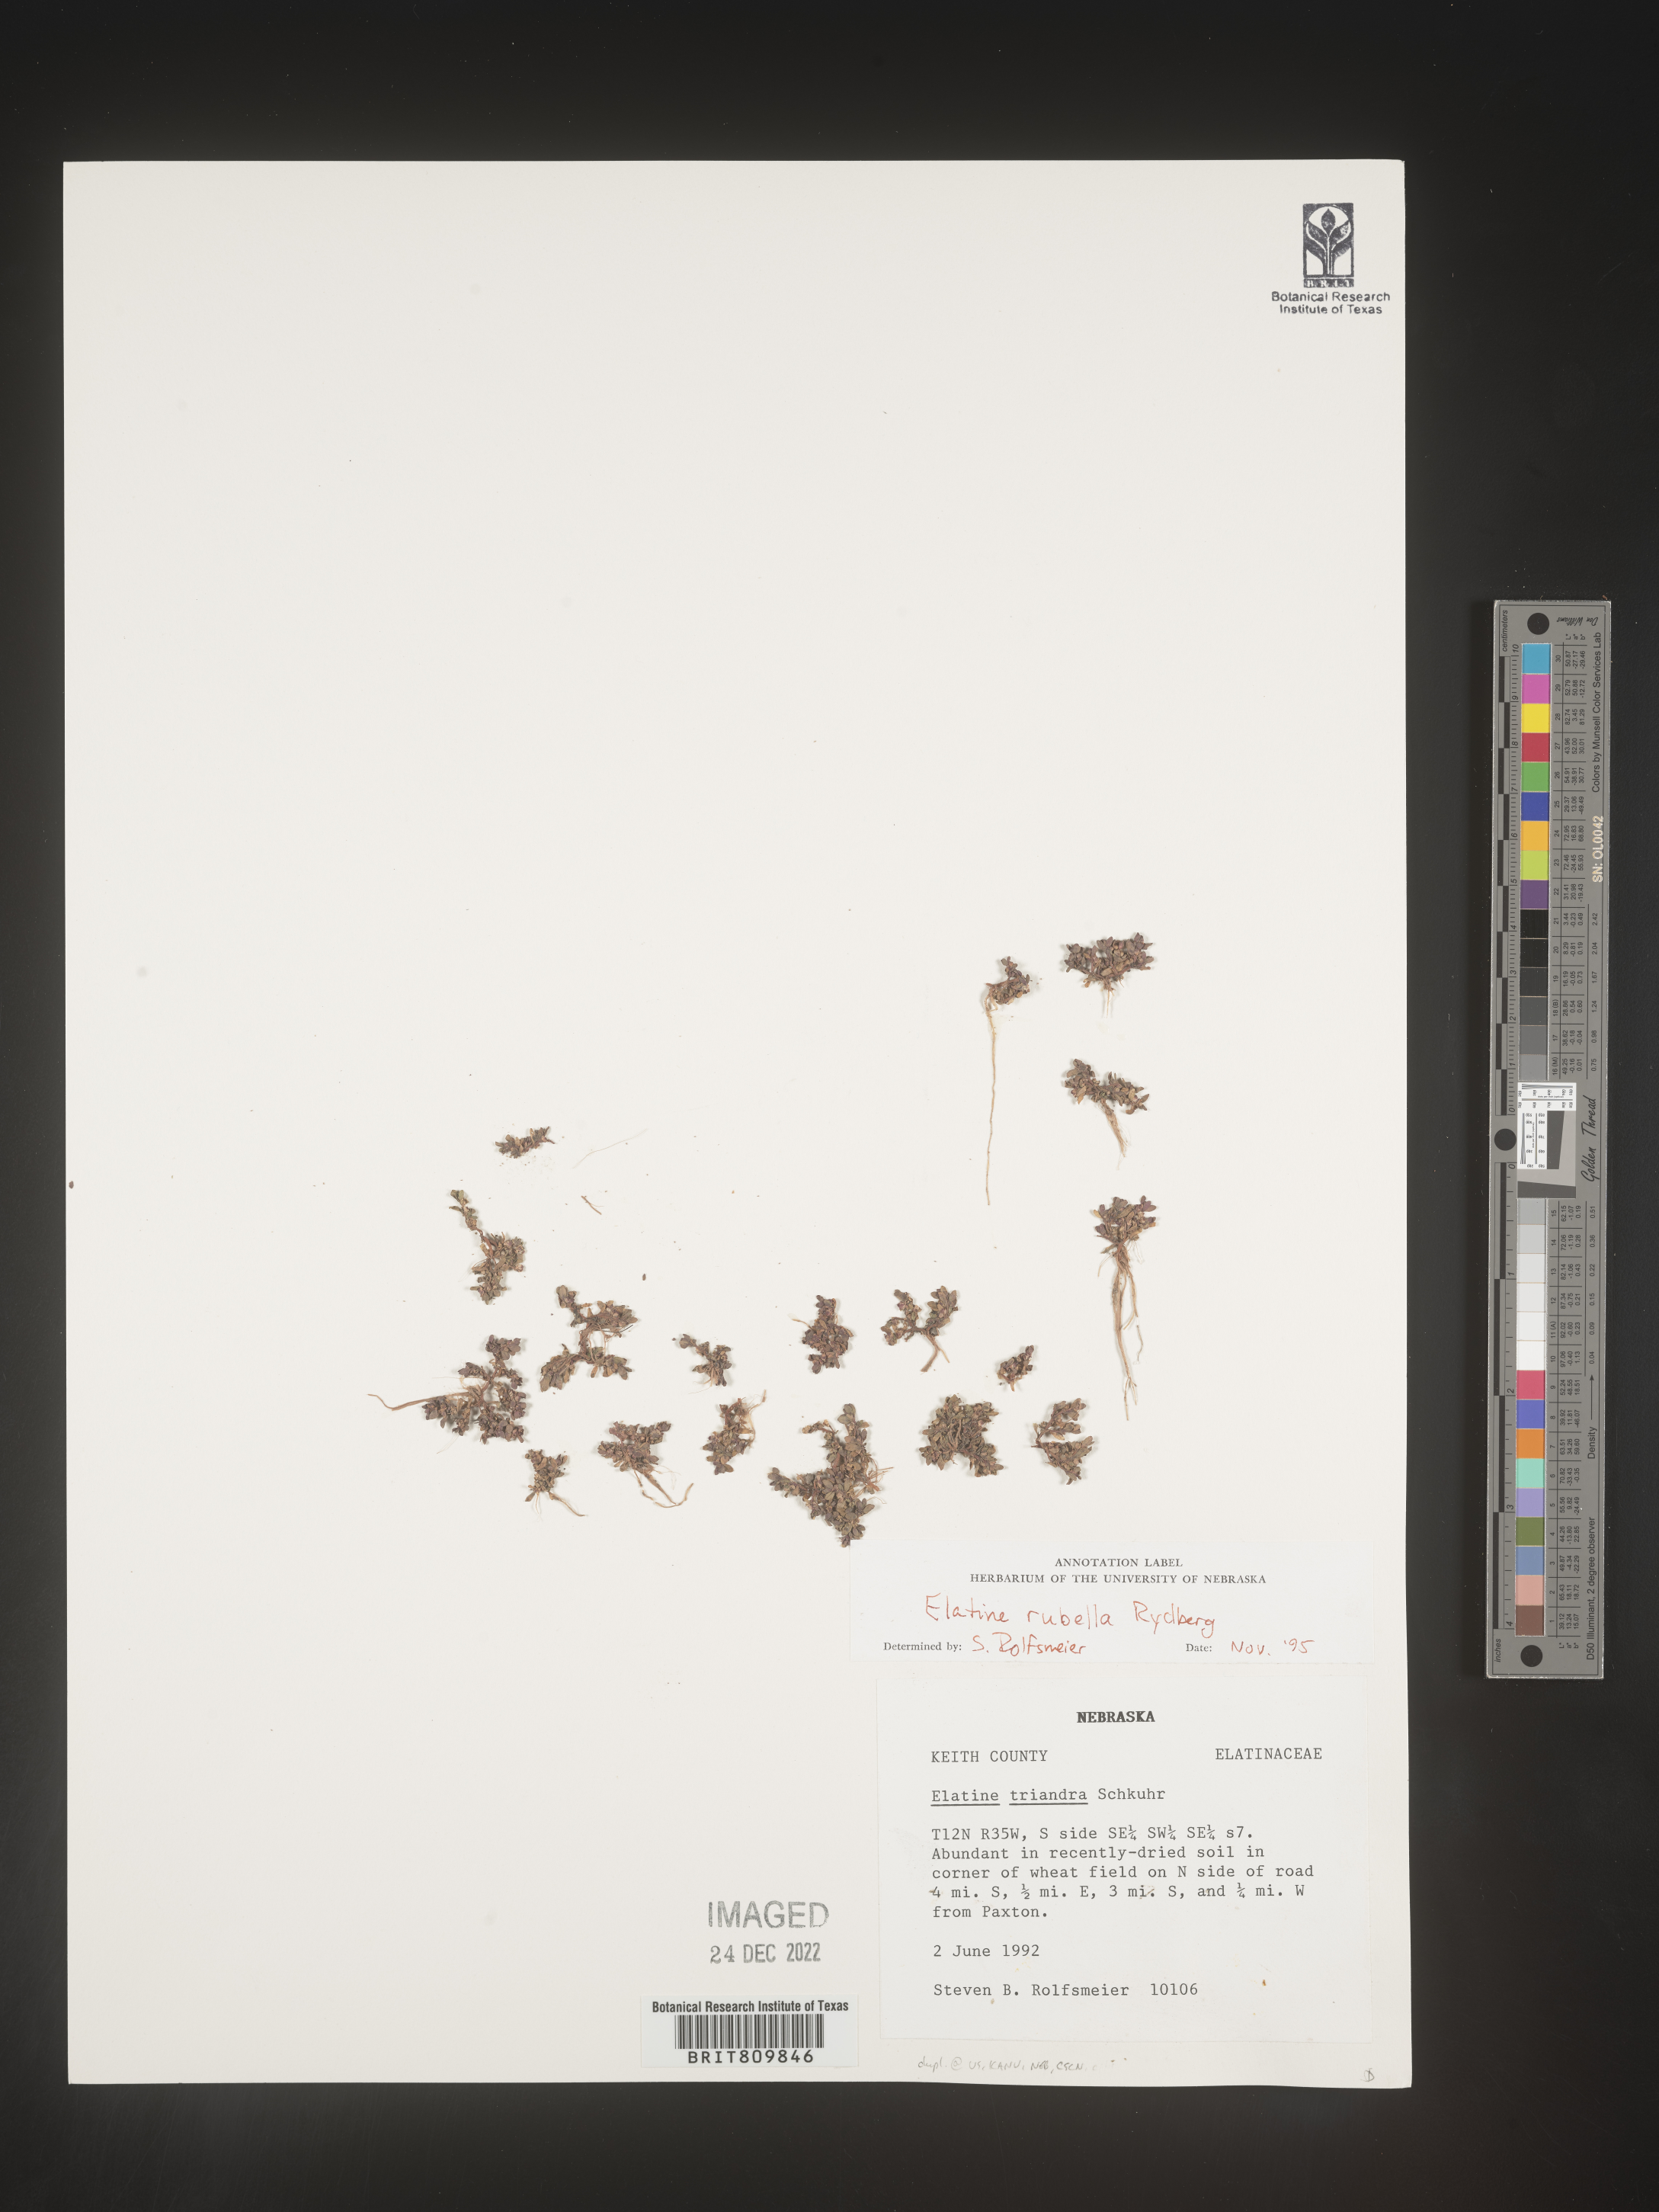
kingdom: Plantae
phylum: Tracheophyta
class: Magnoliopsida
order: Malpighiales
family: Elatinaceae
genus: Elatine
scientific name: Elatine
